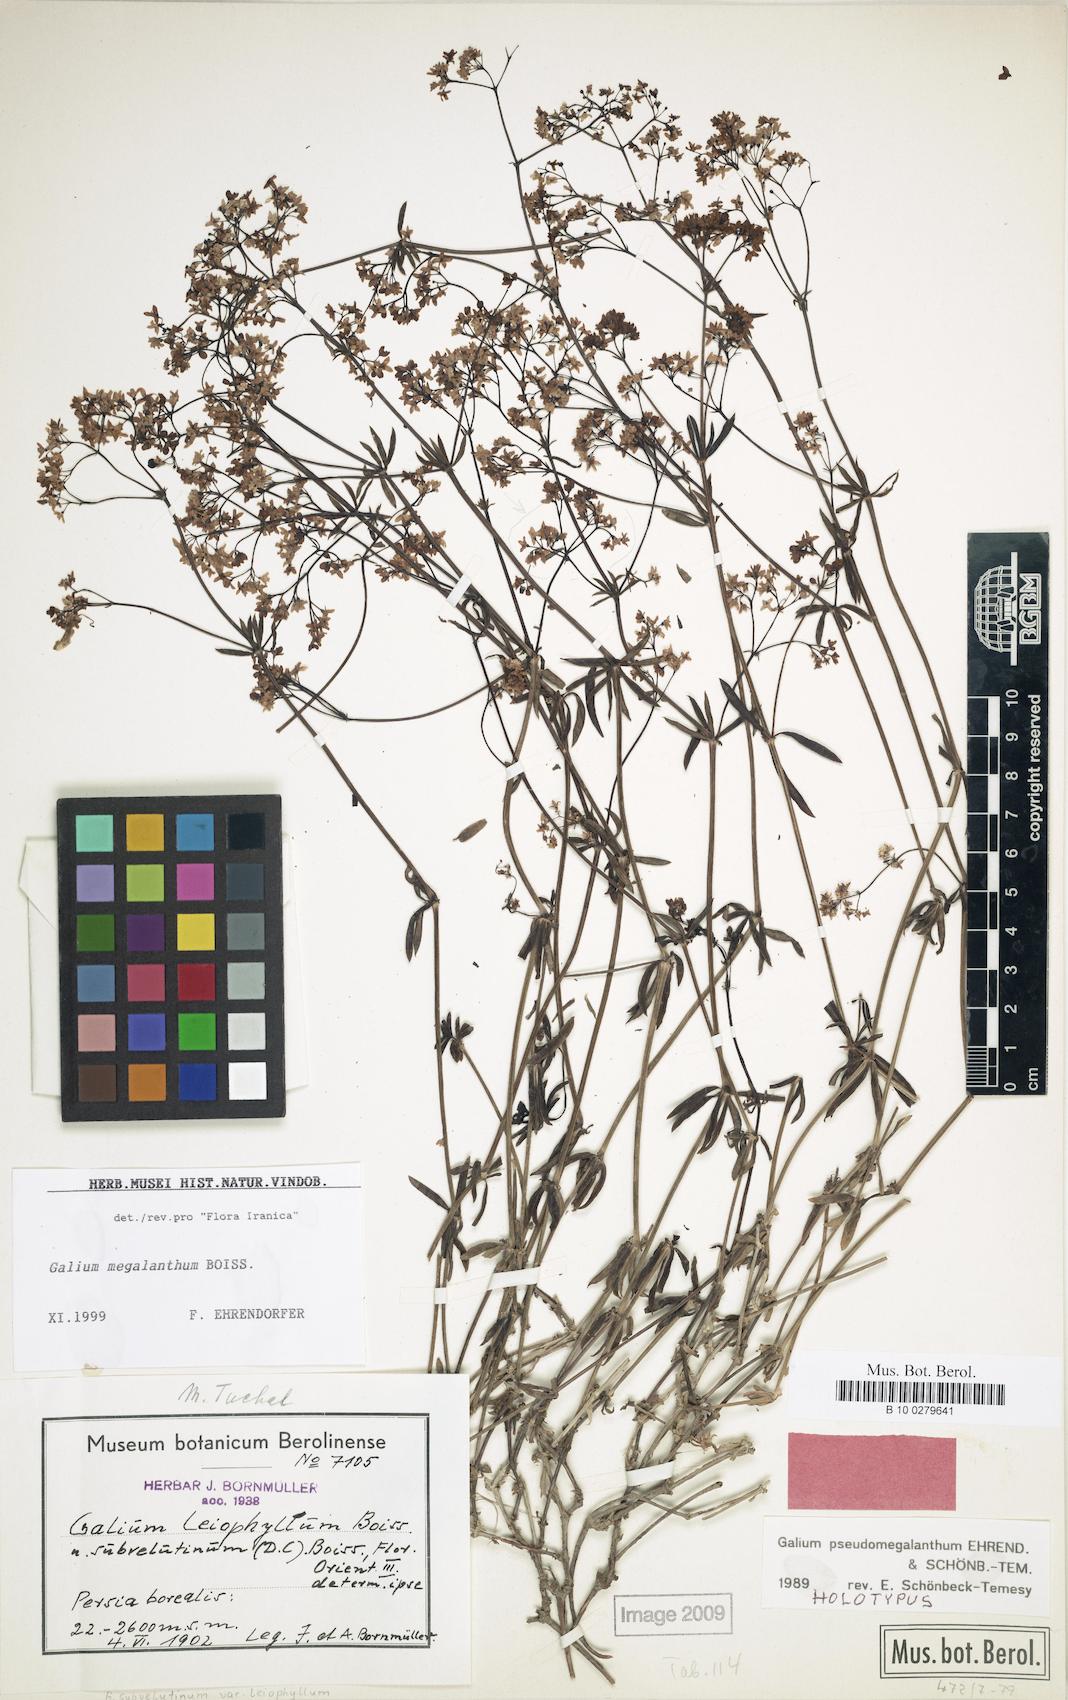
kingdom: Plantae
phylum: Tracheophyta
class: Magnoliopsida
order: Gentianales
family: Rubiaceae
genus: Galium
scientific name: Galium megalanthum
